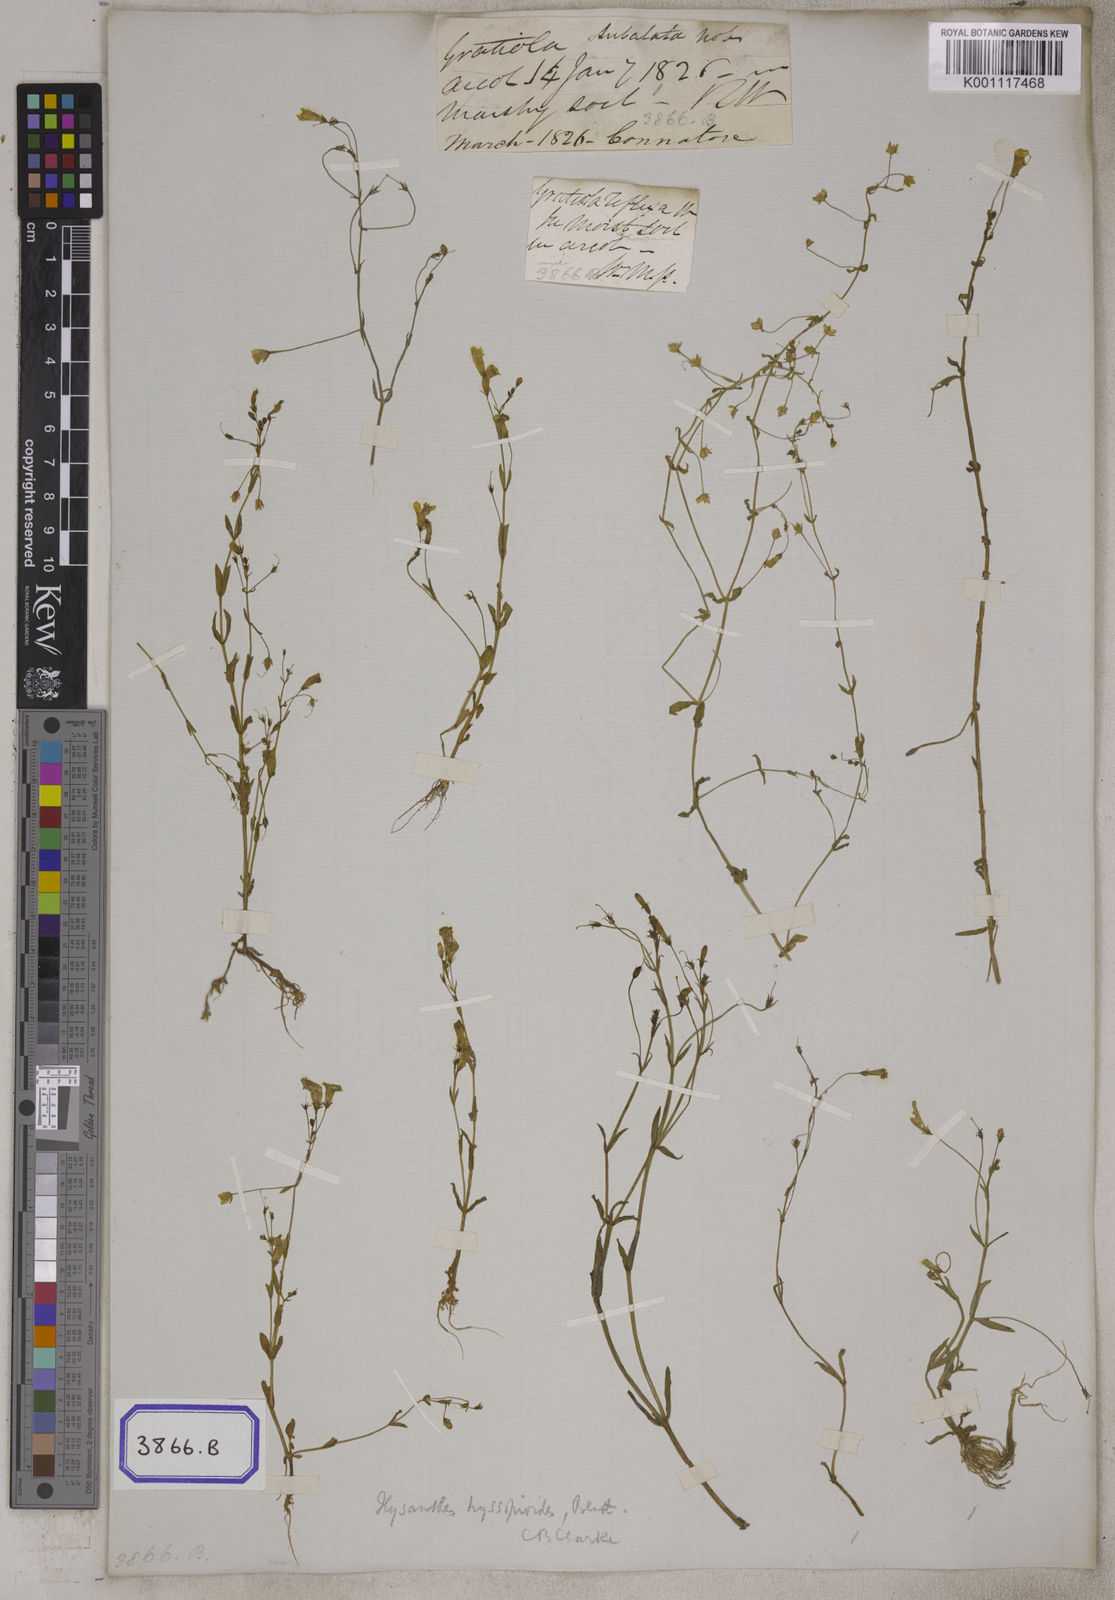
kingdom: Plantae
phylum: Tracheophyta
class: Magnoliopsida
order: Lamiales
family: Linderniaceae
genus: Bonnaya
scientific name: Bonnaya
